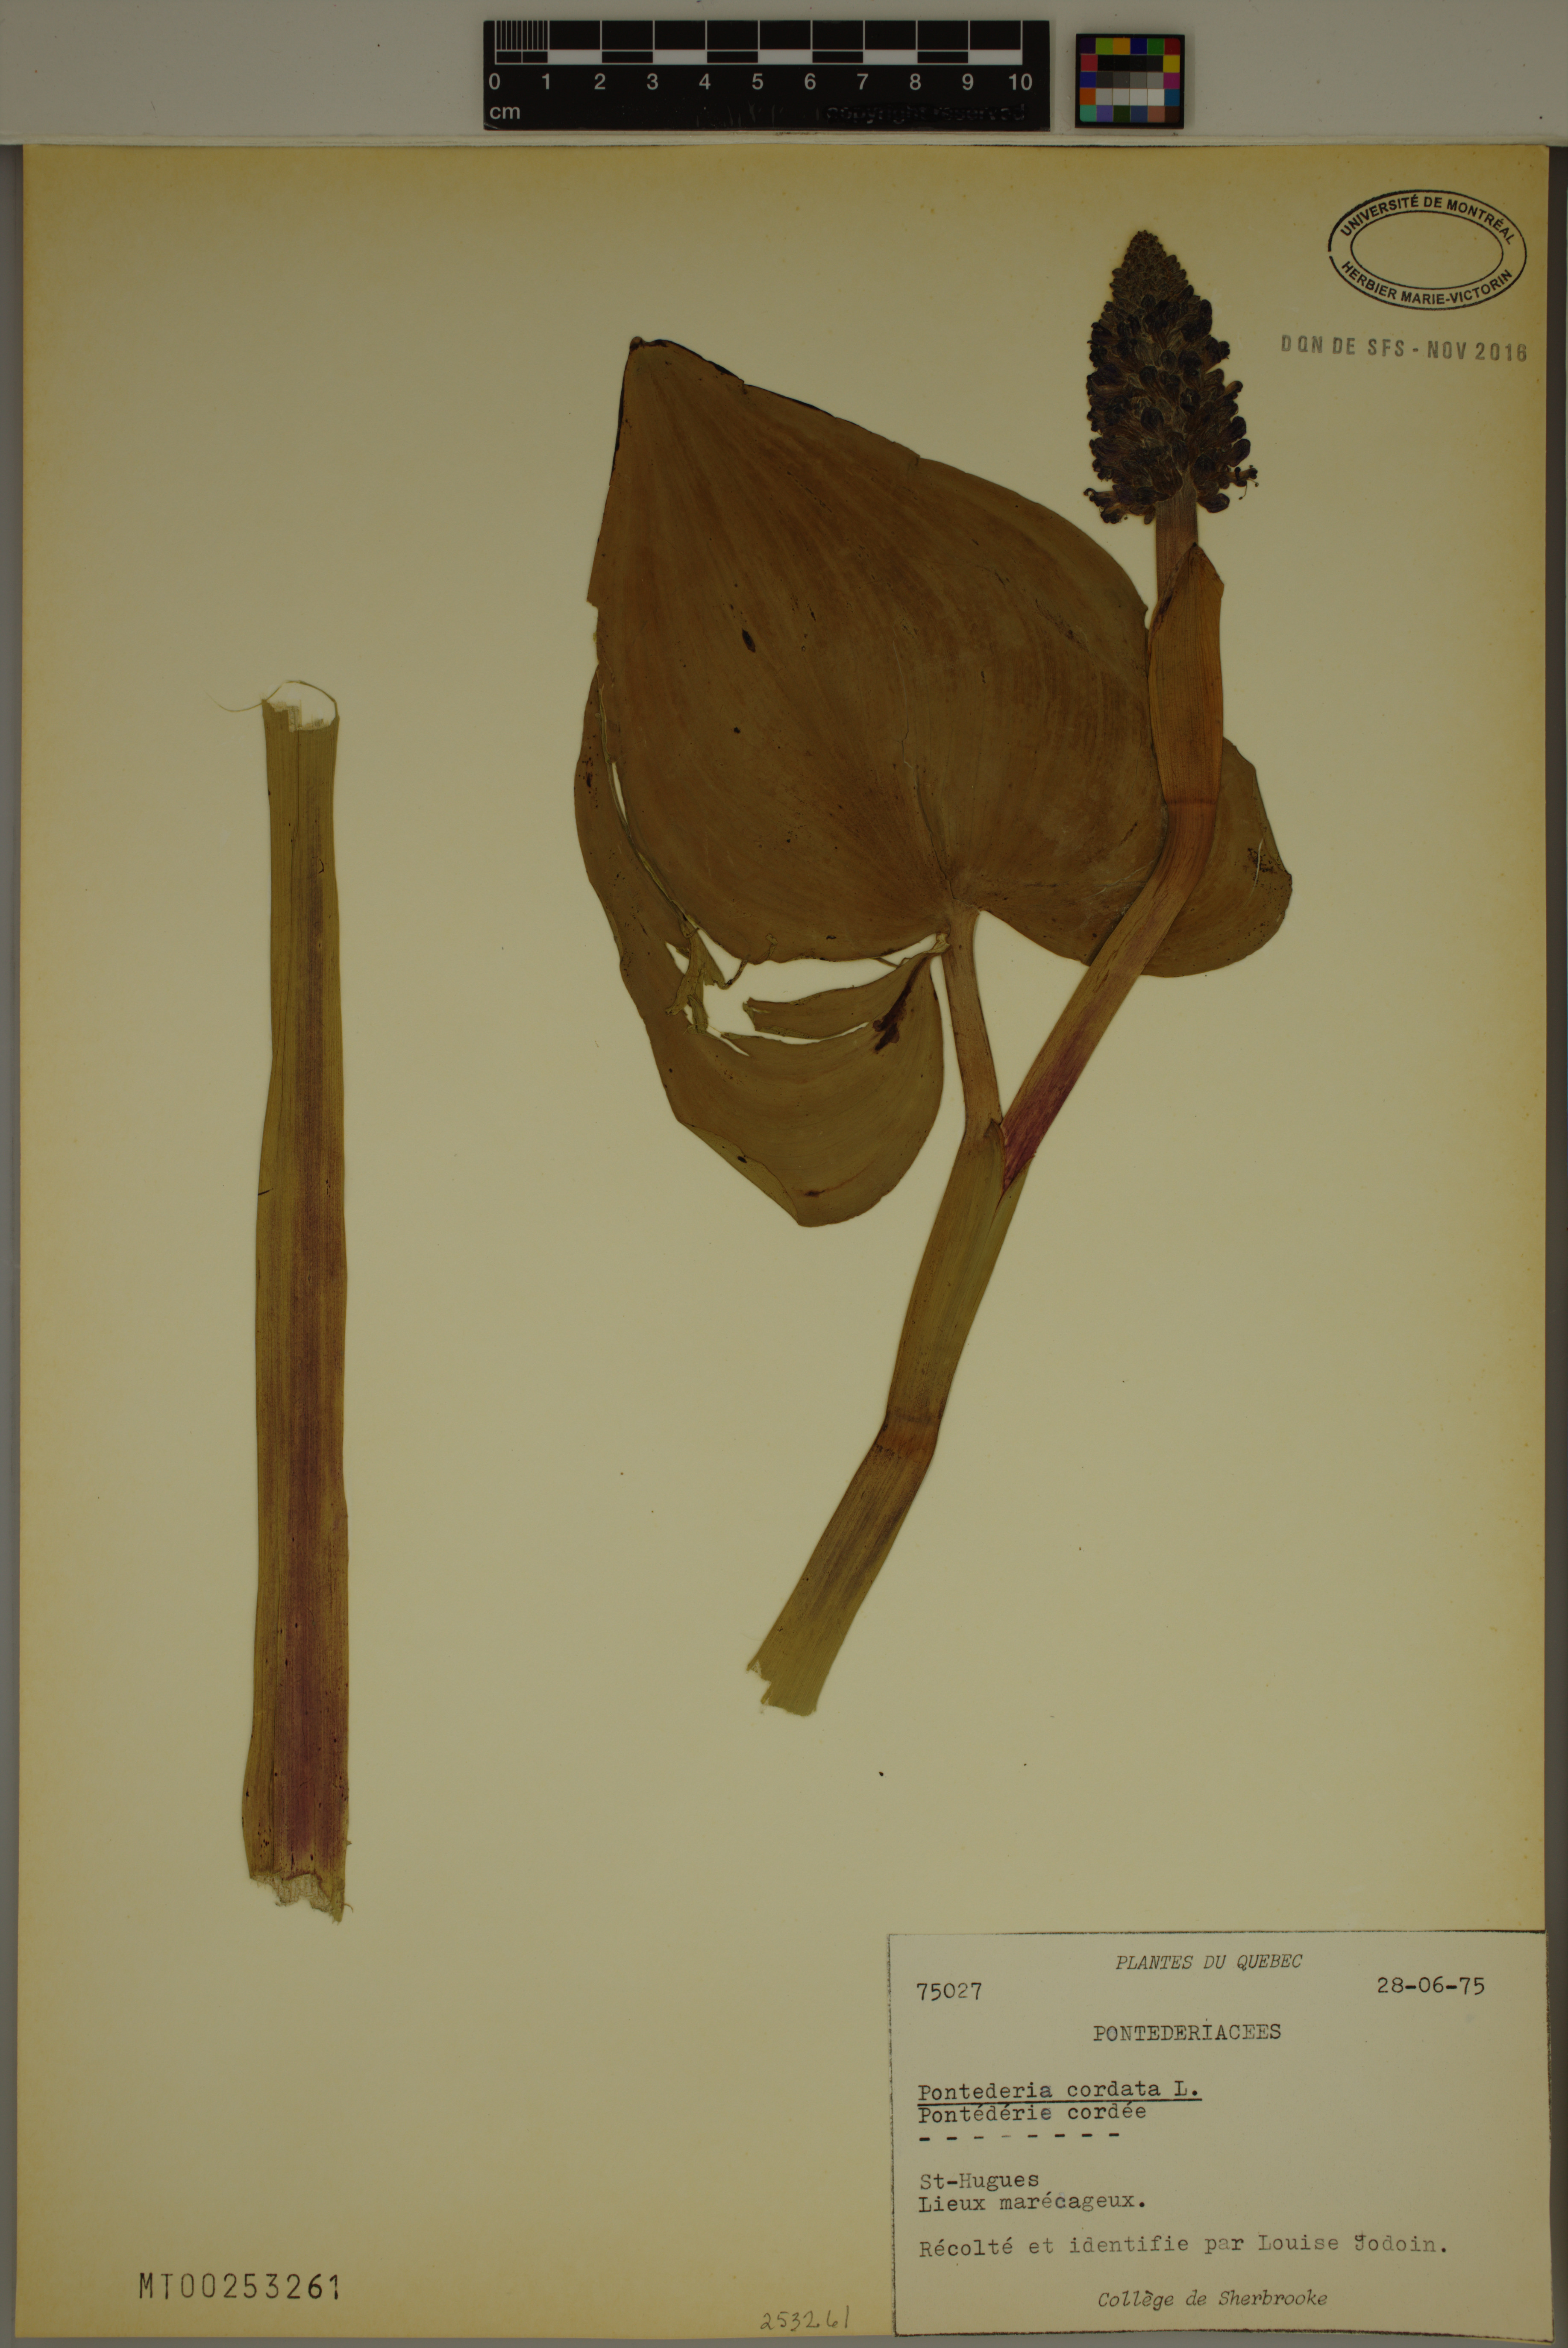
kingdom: Plantae
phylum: Tracheophyta
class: Liliopsida
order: Commelinales
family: Pontederiaceae
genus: Pontederia
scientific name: Pontederia cordata
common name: Pickerelweed
